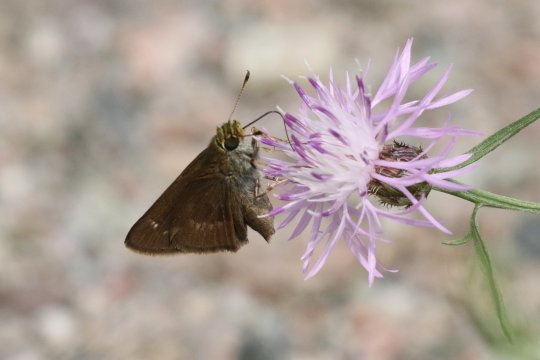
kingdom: Animalia
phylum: Arthropoda
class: Insecta
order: Lepidoptera
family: Hesperiidae
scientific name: Hesperiidae
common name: Skippers
